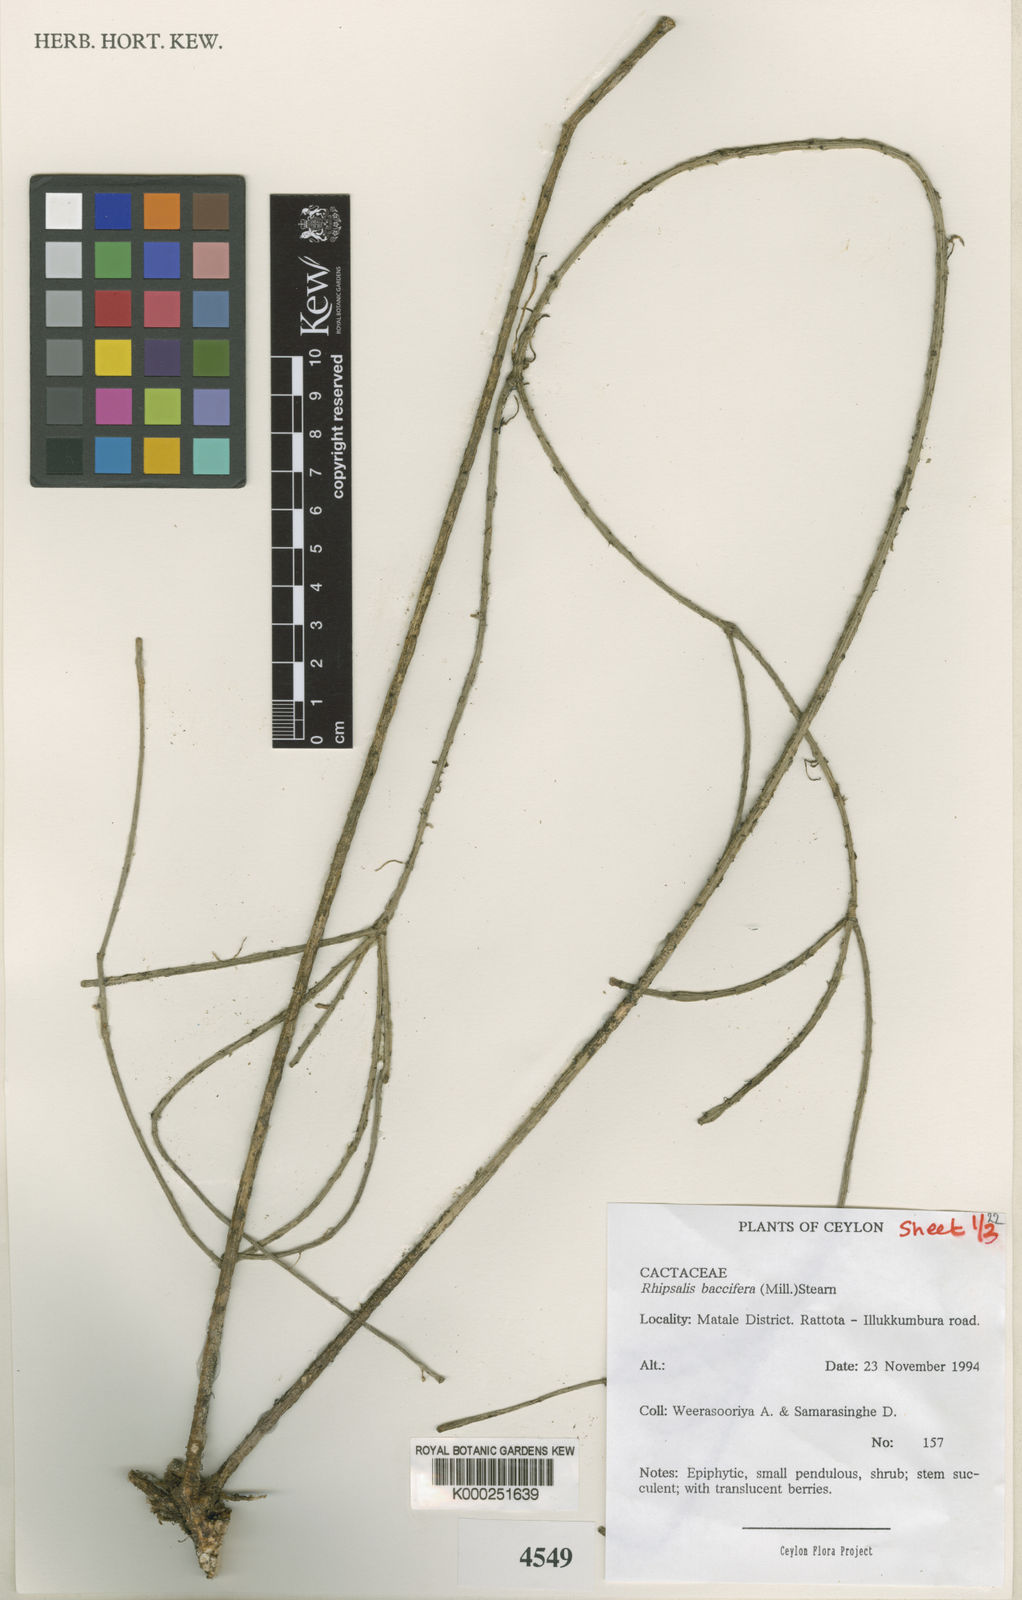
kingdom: Plantae
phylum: Tracheophyta
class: Magnoliopsida
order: Caryophyllales
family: Cactaceae
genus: Rhipsalis
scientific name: Rhipsalis baccifera
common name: Mistletoe cactus
